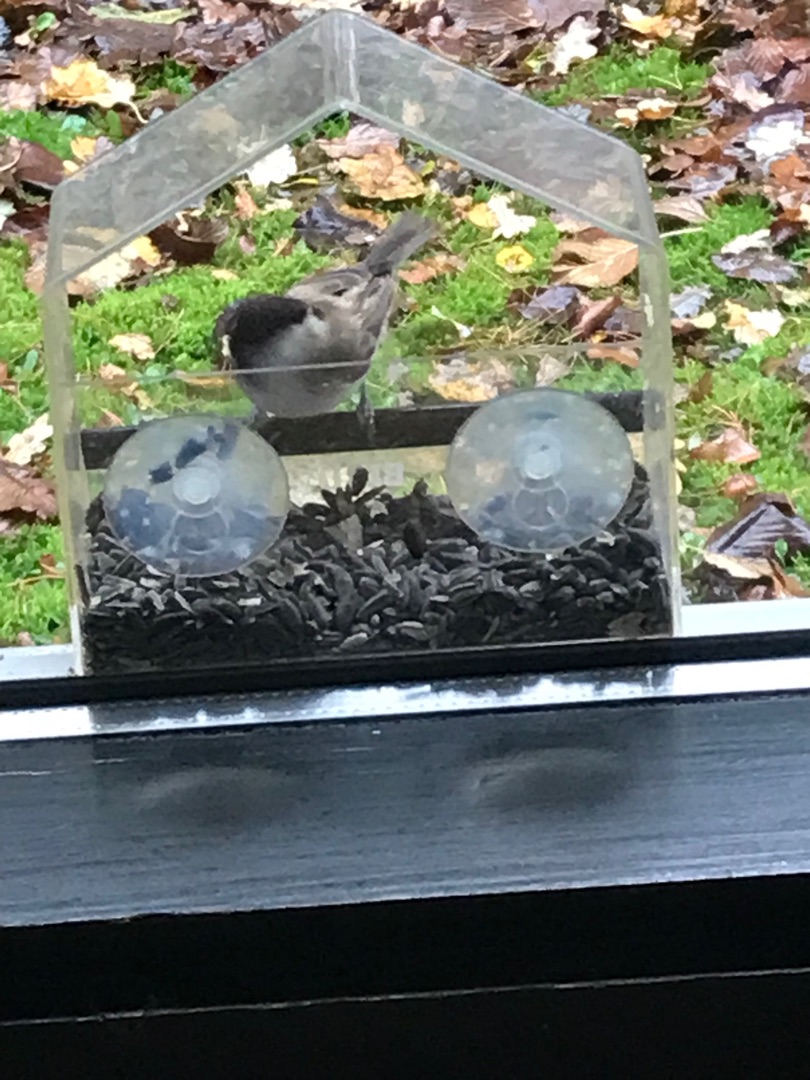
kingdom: Animalia
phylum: Chordata
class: Aves
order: Passeriformes
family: Paridae
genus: Poecile
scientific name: Poecile palustris
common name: Sumpmejse
